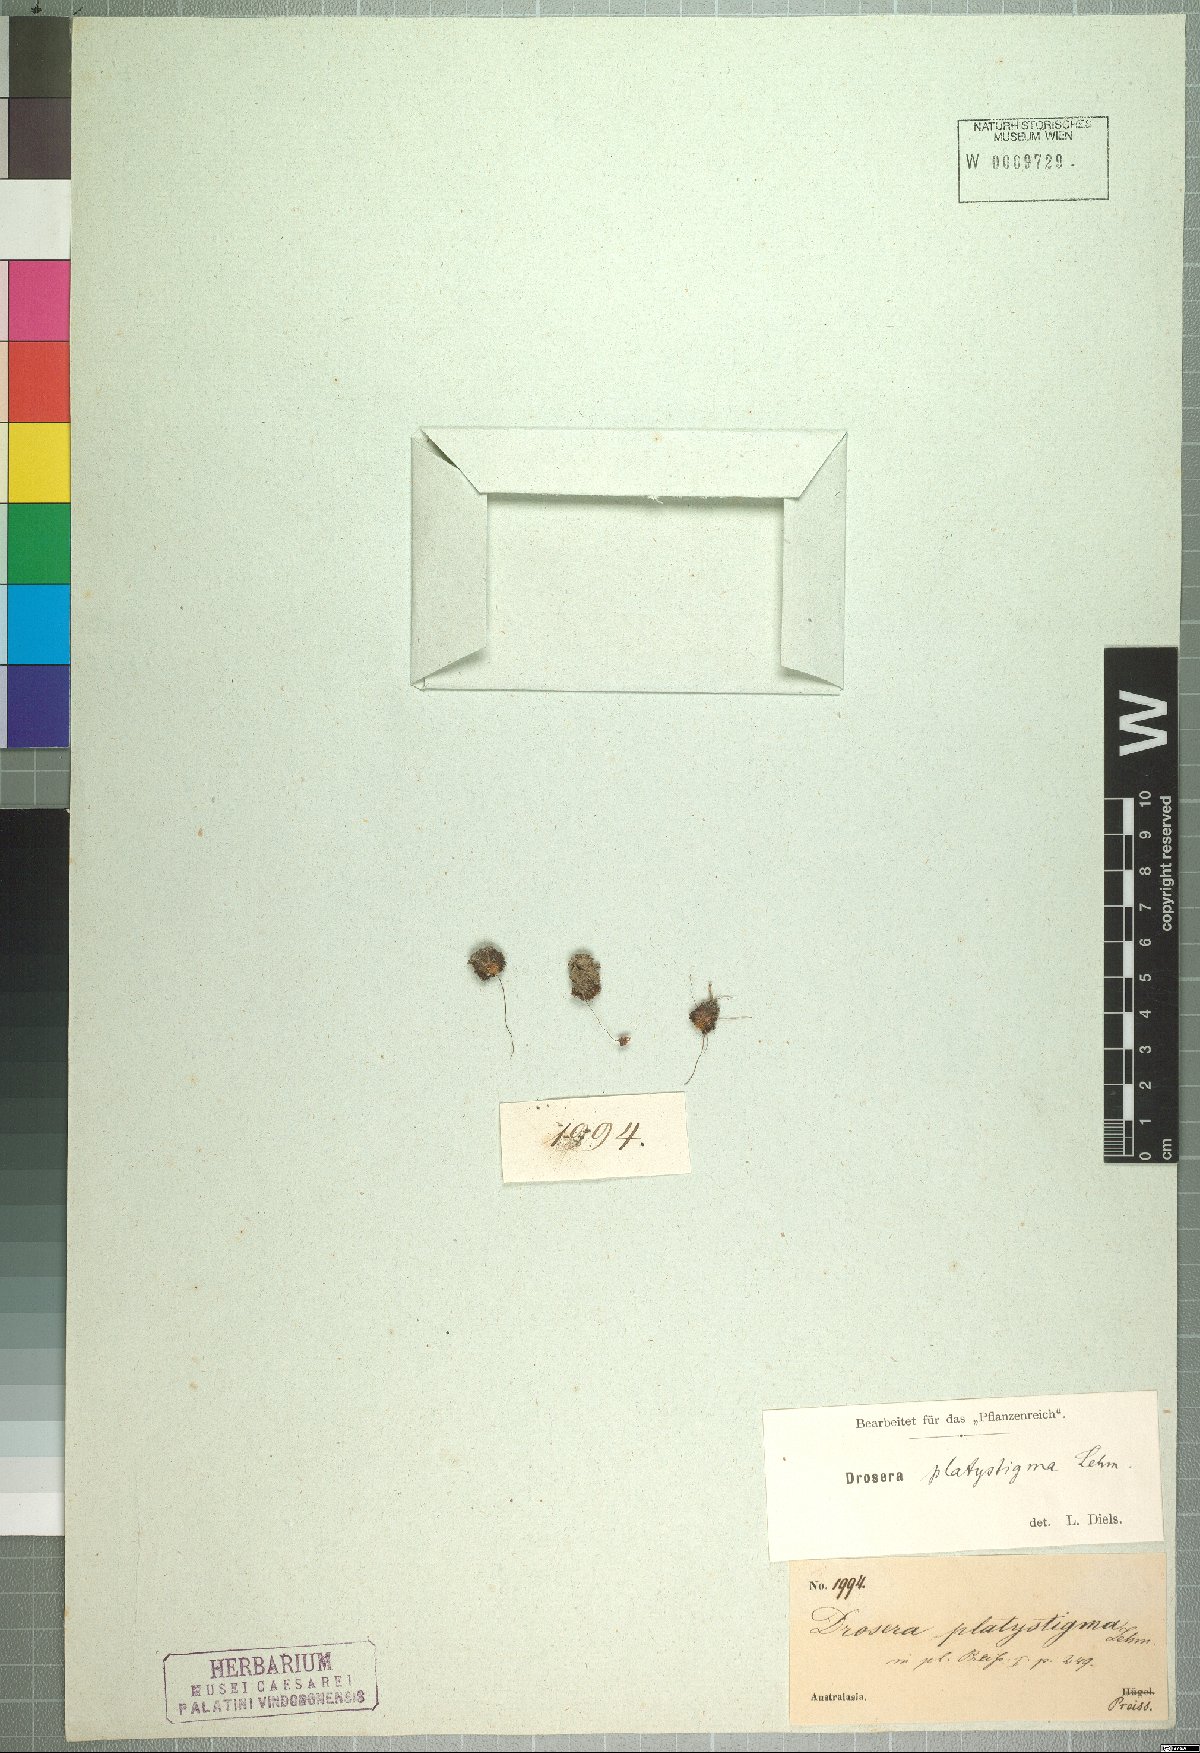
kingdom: Plantae
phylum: Tracheophyta
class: Magnoliopsida
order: Caryophyllales
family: Droseraceae
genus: Drosera
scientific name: Drosera platystigma
